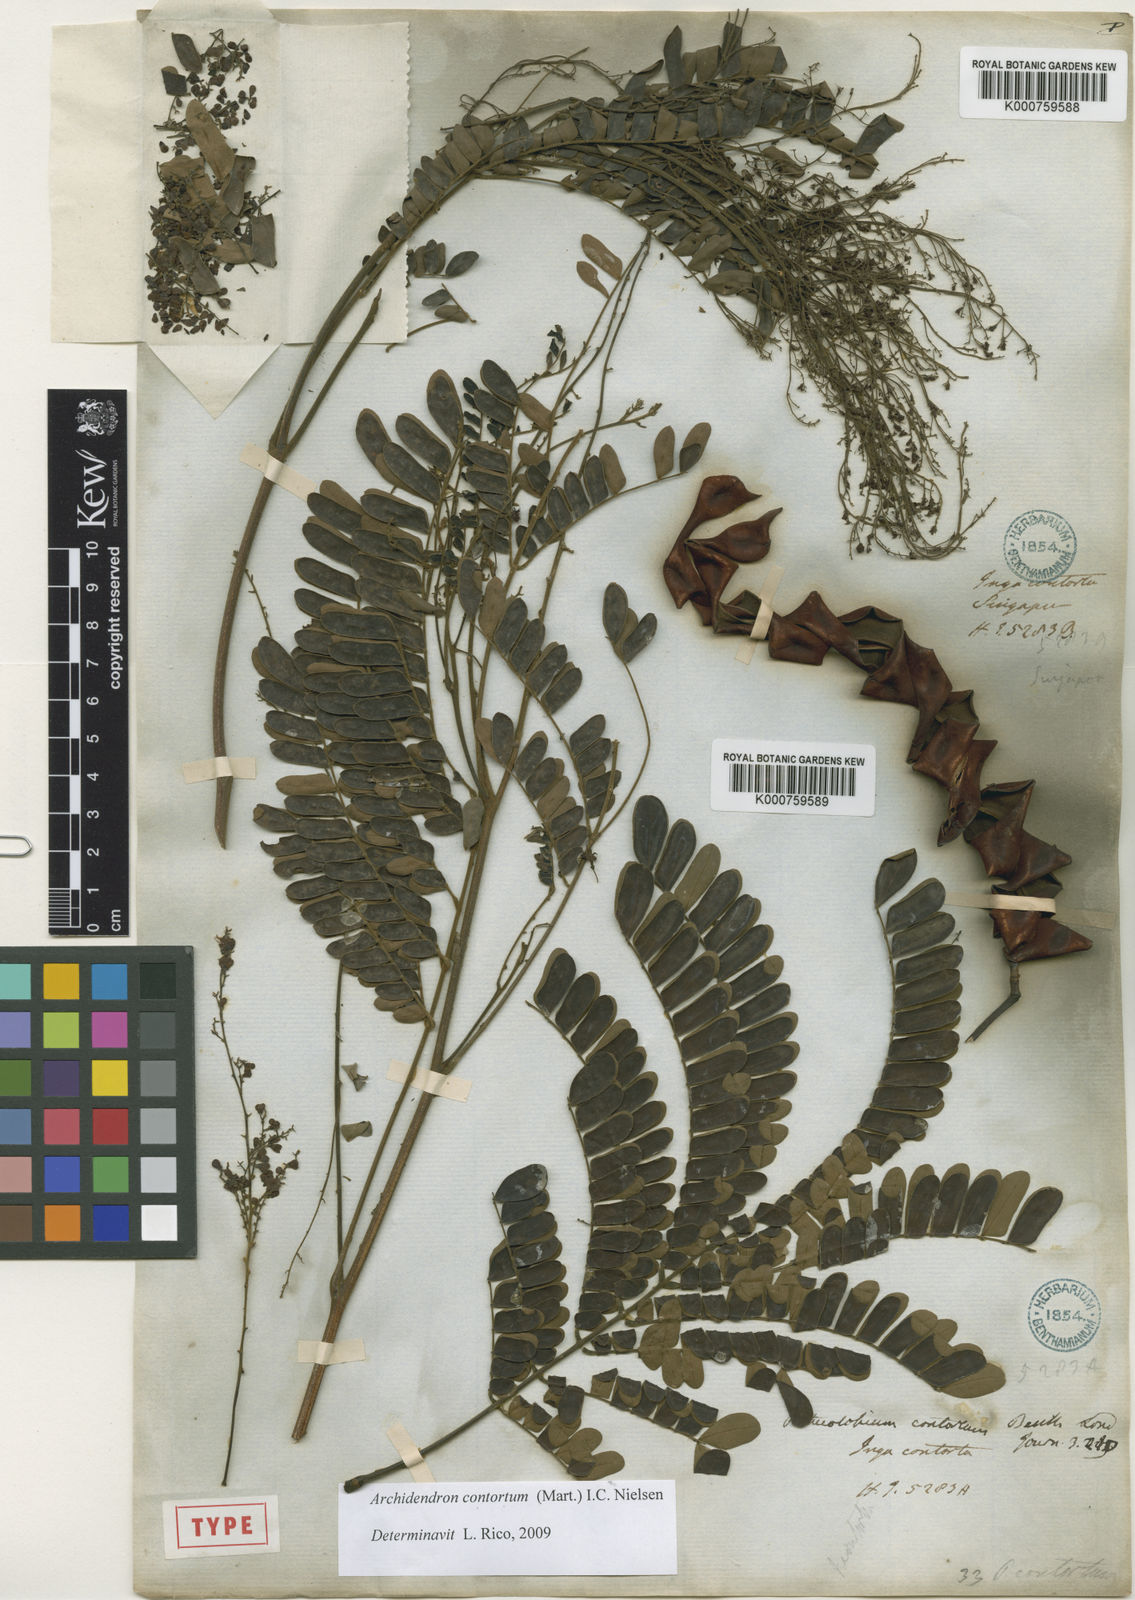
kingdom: Plantae
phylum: Tracheophyta
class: Magnoliopsida
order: Fabales
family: Fabaceae
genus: Archidendron
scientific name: Archidendron contortum
